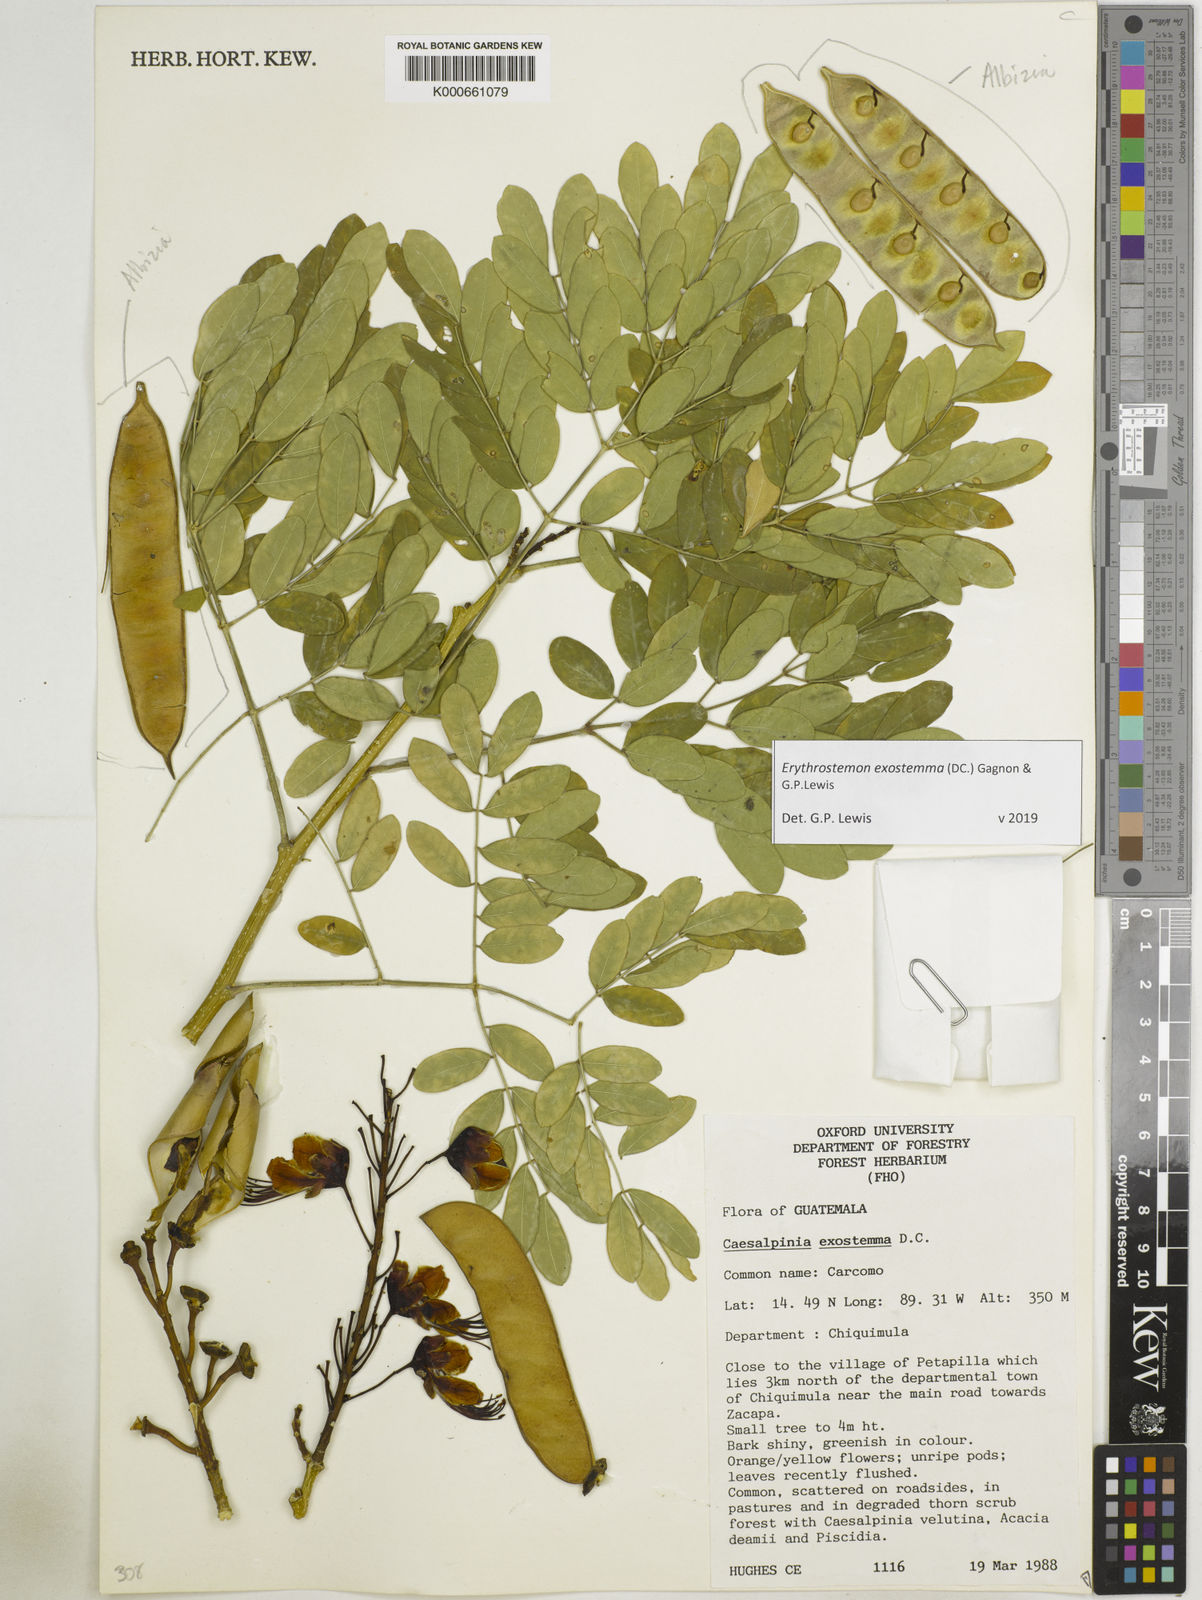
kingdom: Plantae
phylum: Tracheophyta
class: Magnoliopsida
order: Fabales
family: Fabaceae
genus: Erythrostemon
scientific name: Erythrostemon exostemma
